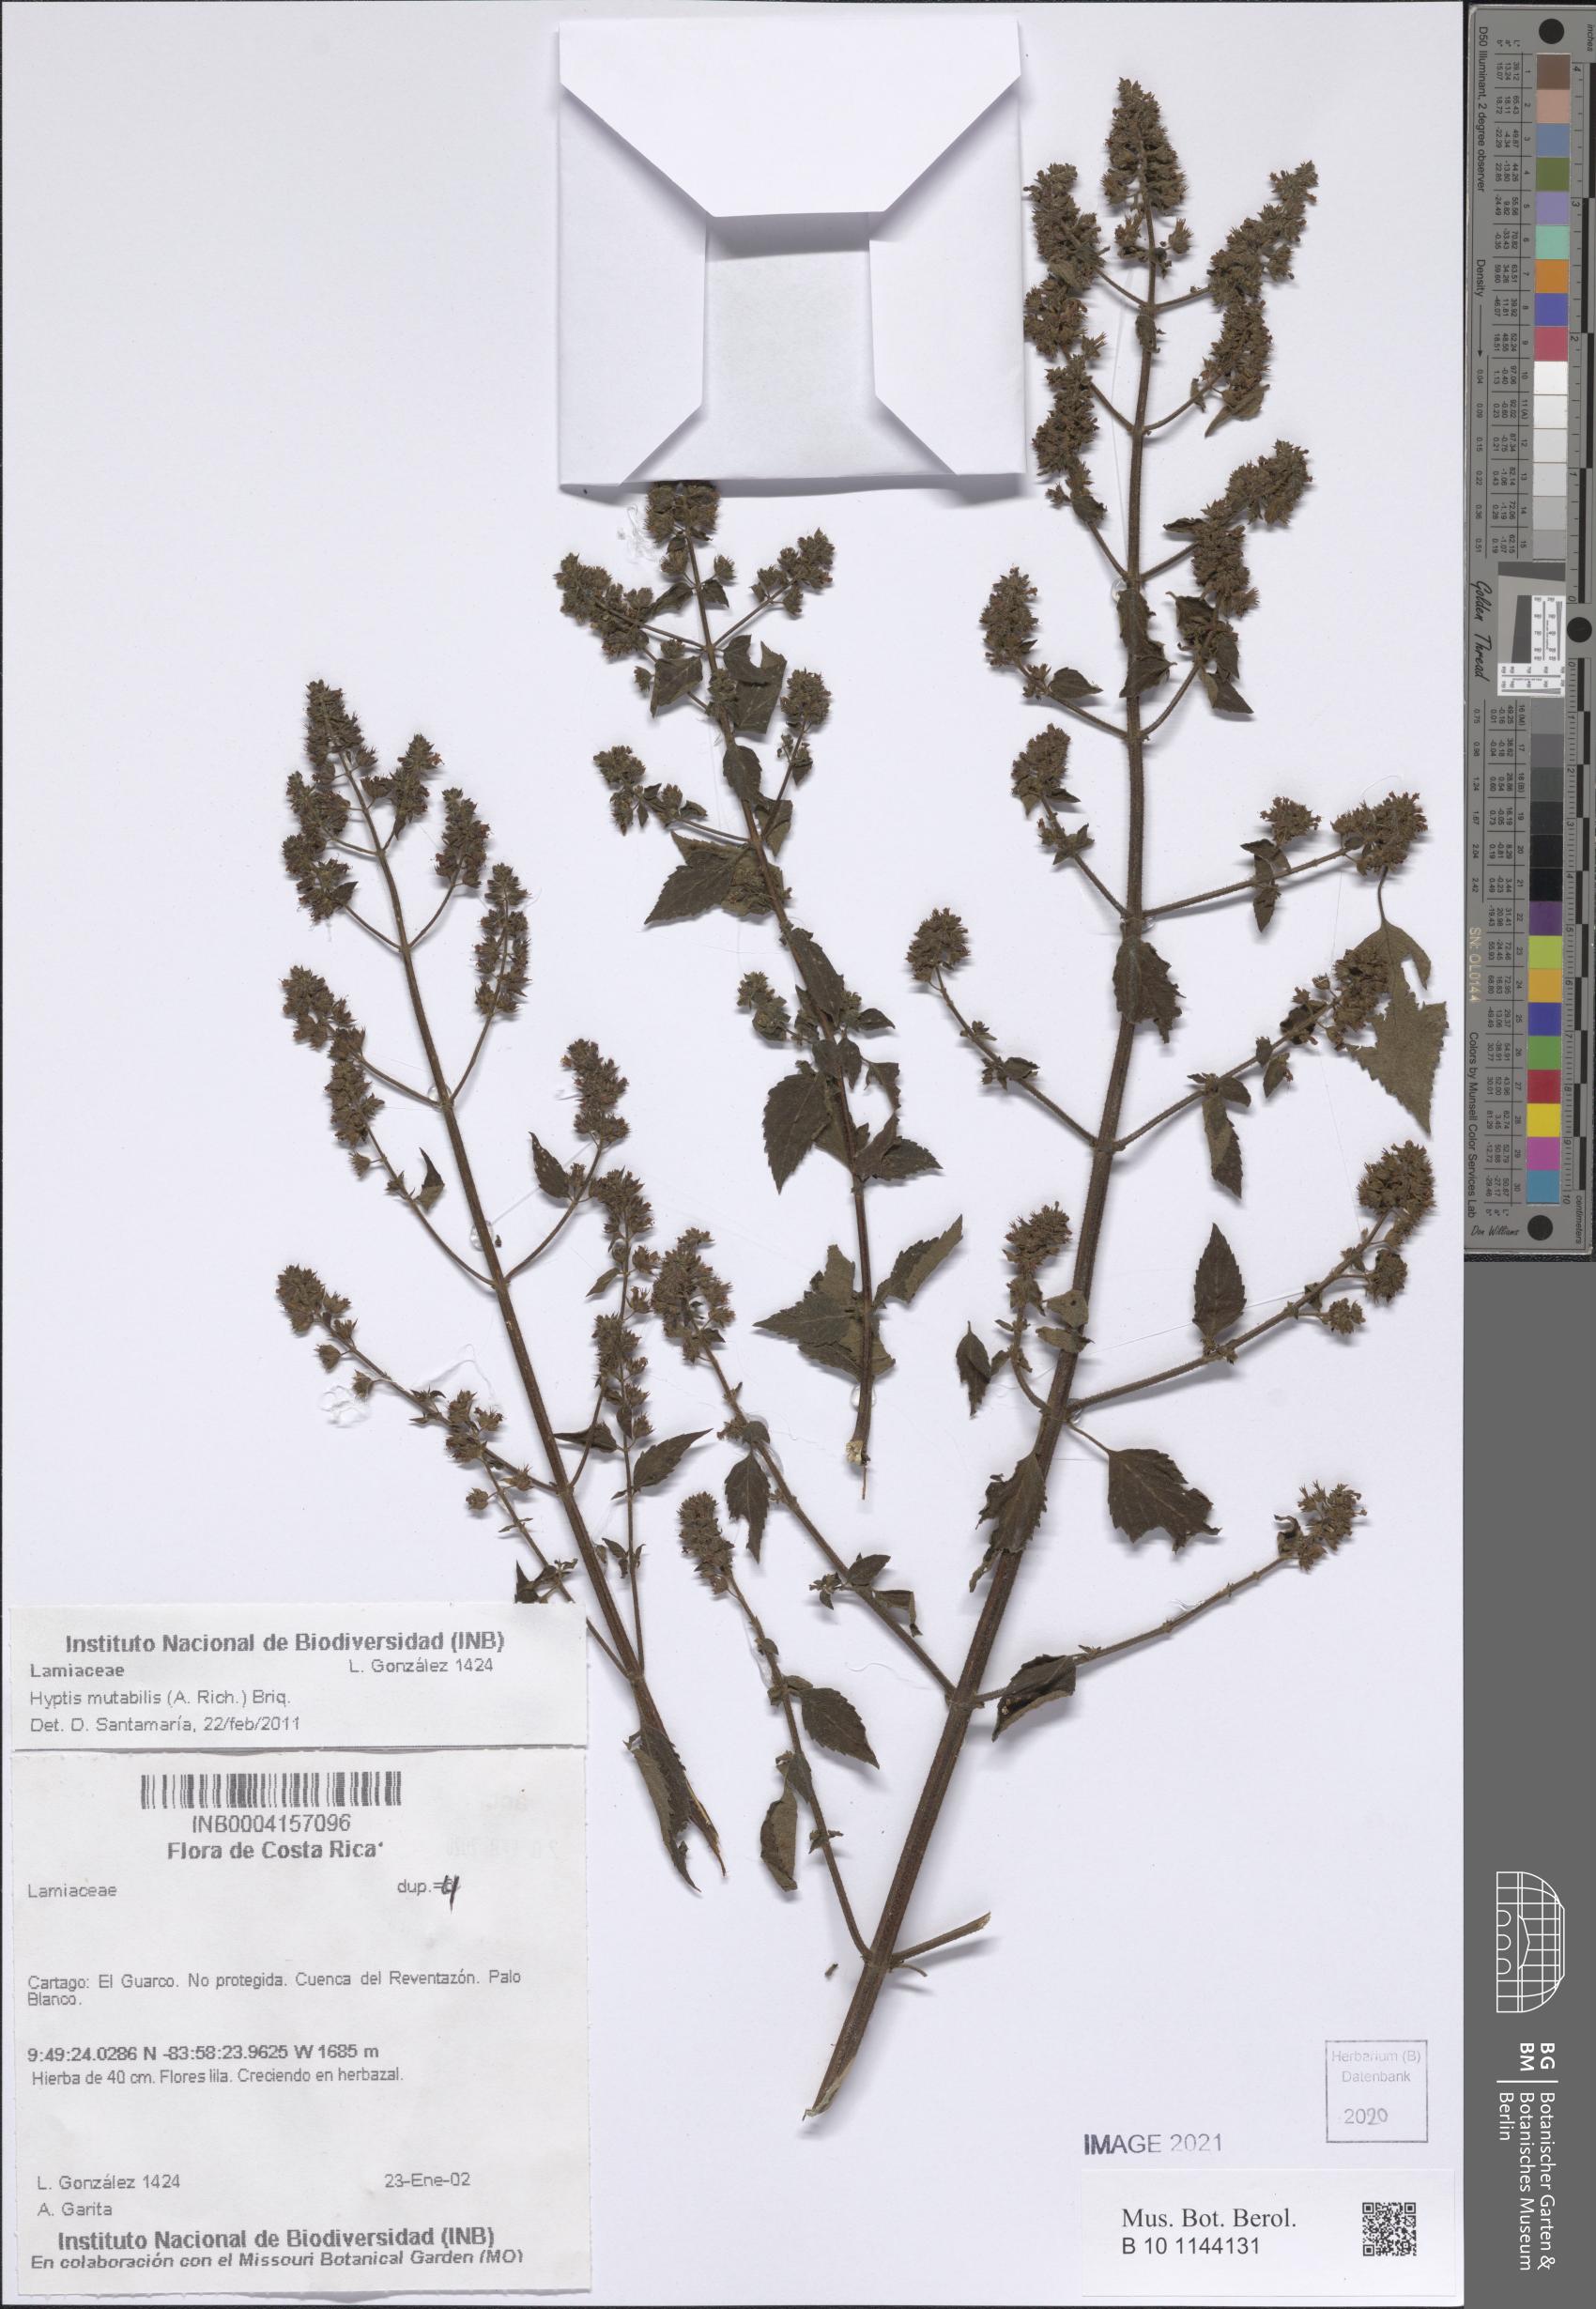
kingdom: Plantae
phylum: Tracheophyta
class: Magnoliopsida
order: Lamiales
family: Lamiaceae
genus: Cantinoa
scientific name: Cantinoa mutabilis
